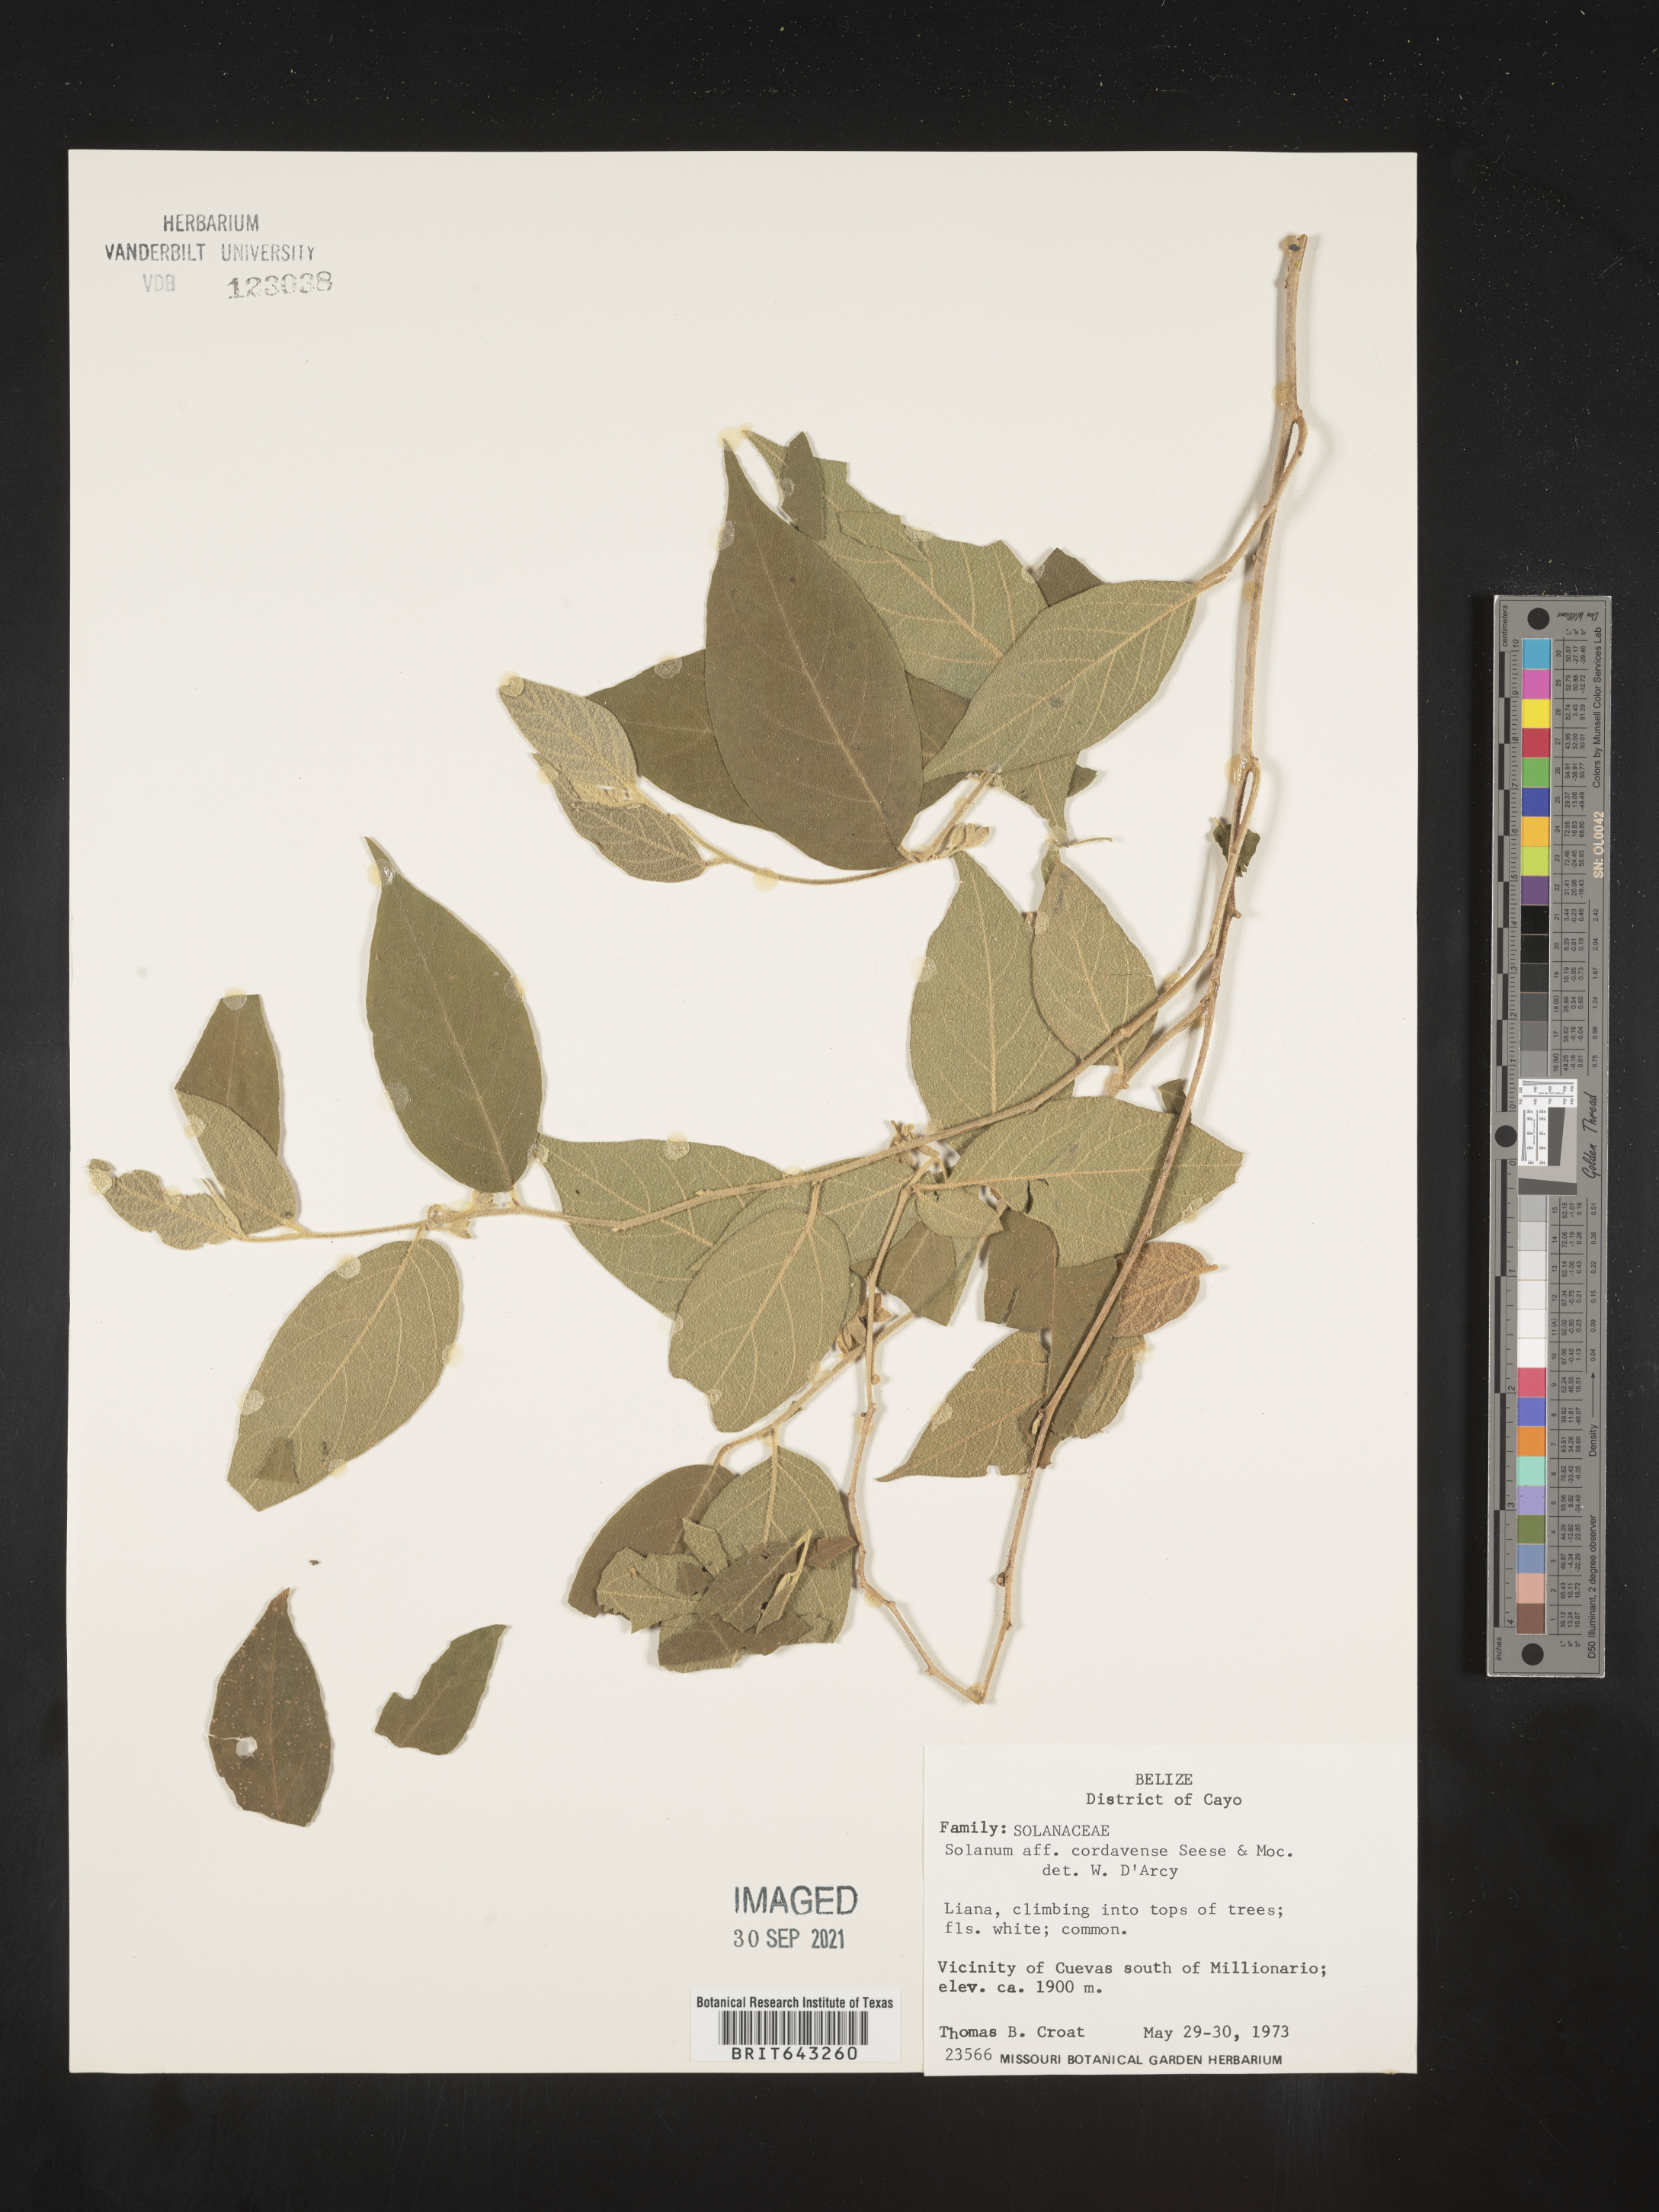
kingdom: Plantae
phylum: Tracheophyta
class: Magnoliopsida
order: Solanales
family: Solanaceae
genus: Solanum
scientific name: Solanum
